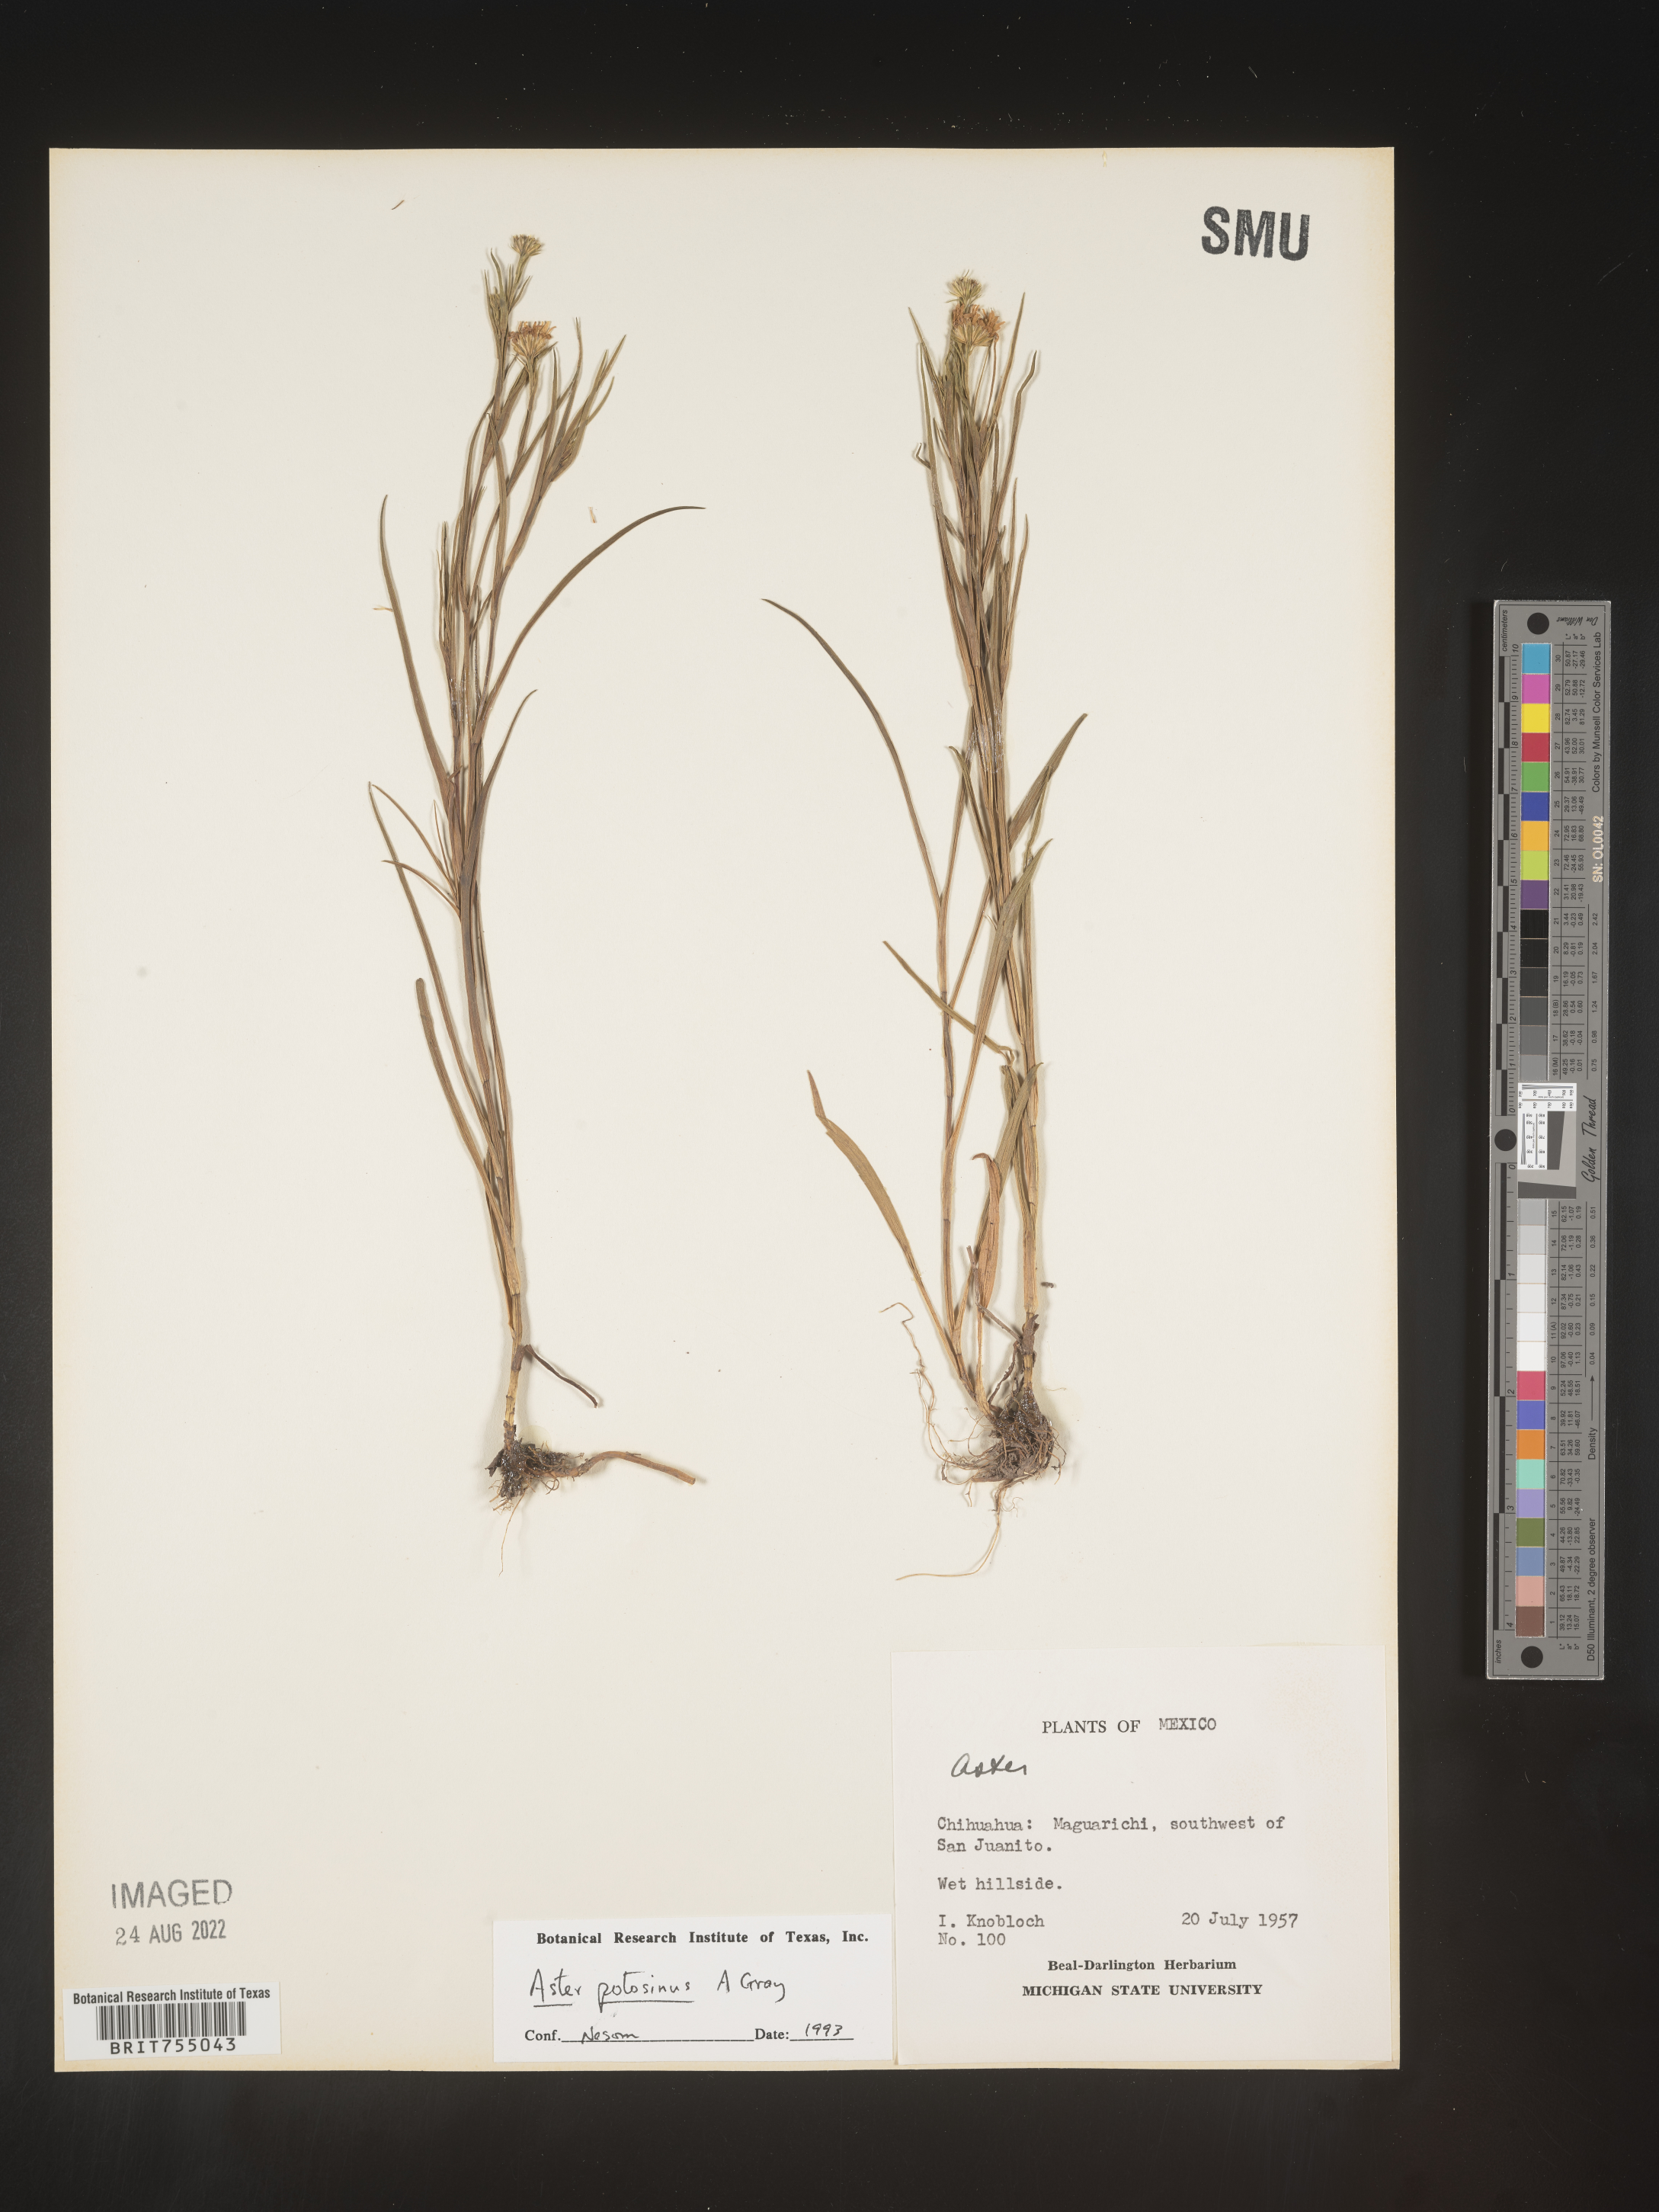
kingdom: Plantae
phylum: Tracheophyta
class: Magnoliopsida
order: Asterales
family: Asteraceae
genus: Symphyotrichum
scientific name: Symphyotrichum potosinum
